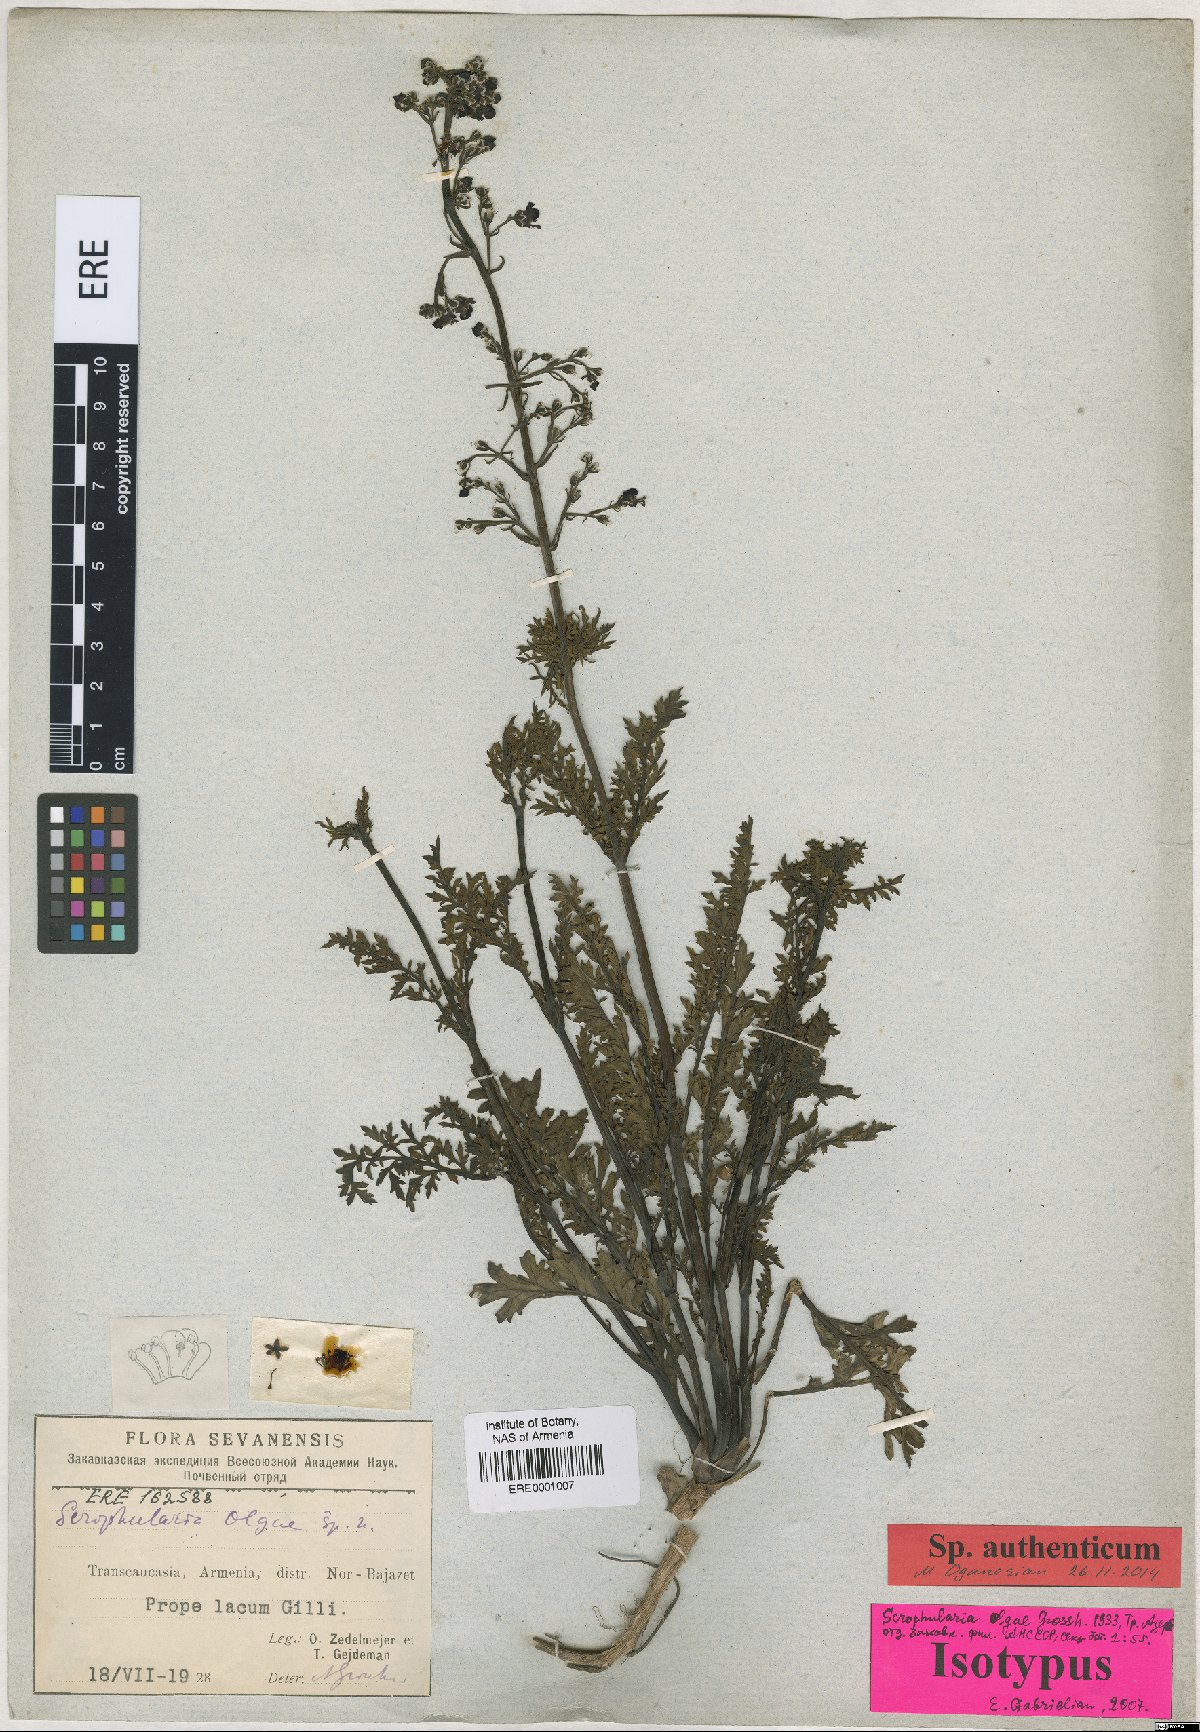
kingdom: Plantae
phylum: Tracheophyta
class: Magnoliopsida
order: Lamiales
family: Scrophulariaceae
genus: Scrophularia
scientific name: Scrophularia olgae
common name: Olga's fig-wort
